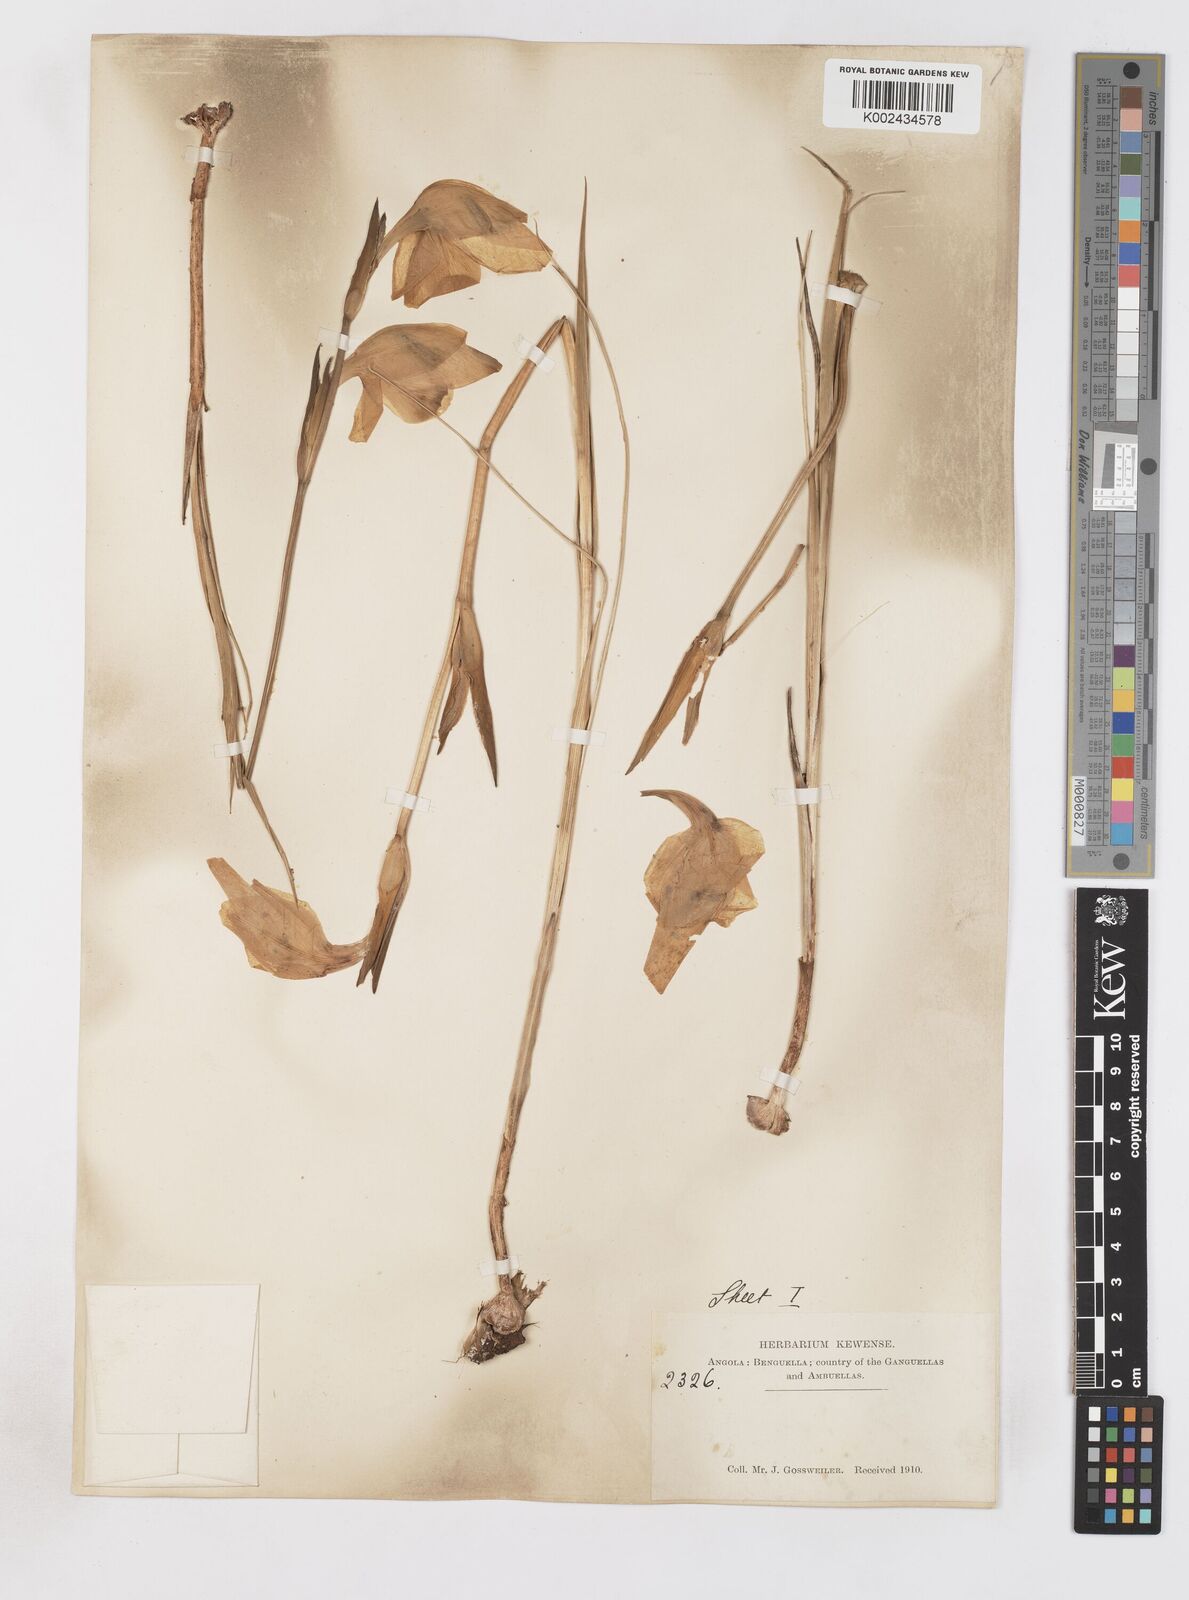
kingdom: Plantae
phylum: Tracheophyta
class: Liliopsida
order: Asparagales
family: Iridaceae
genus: Gladiolus
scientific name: Gladiolus
